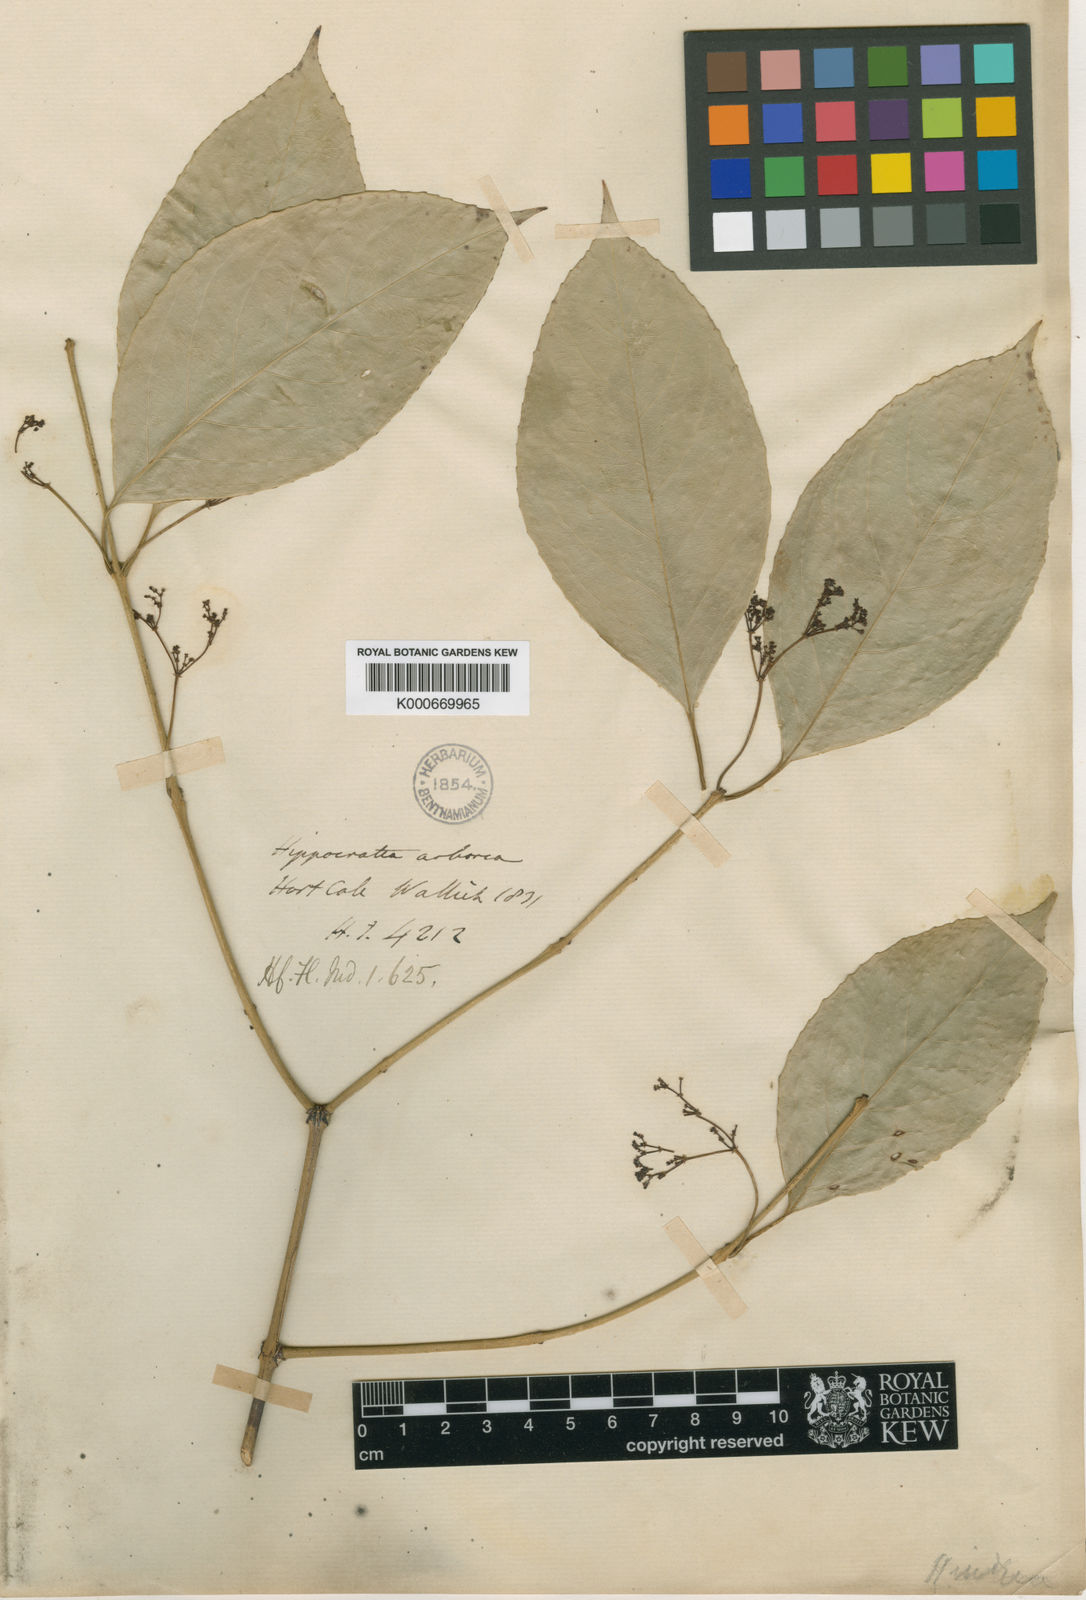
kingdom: Plantae
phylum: Tracheophyta
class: Magnoliopsida
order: Celastrales
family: Celastraceae
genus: Reissantia
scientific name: Reissantia arborea
